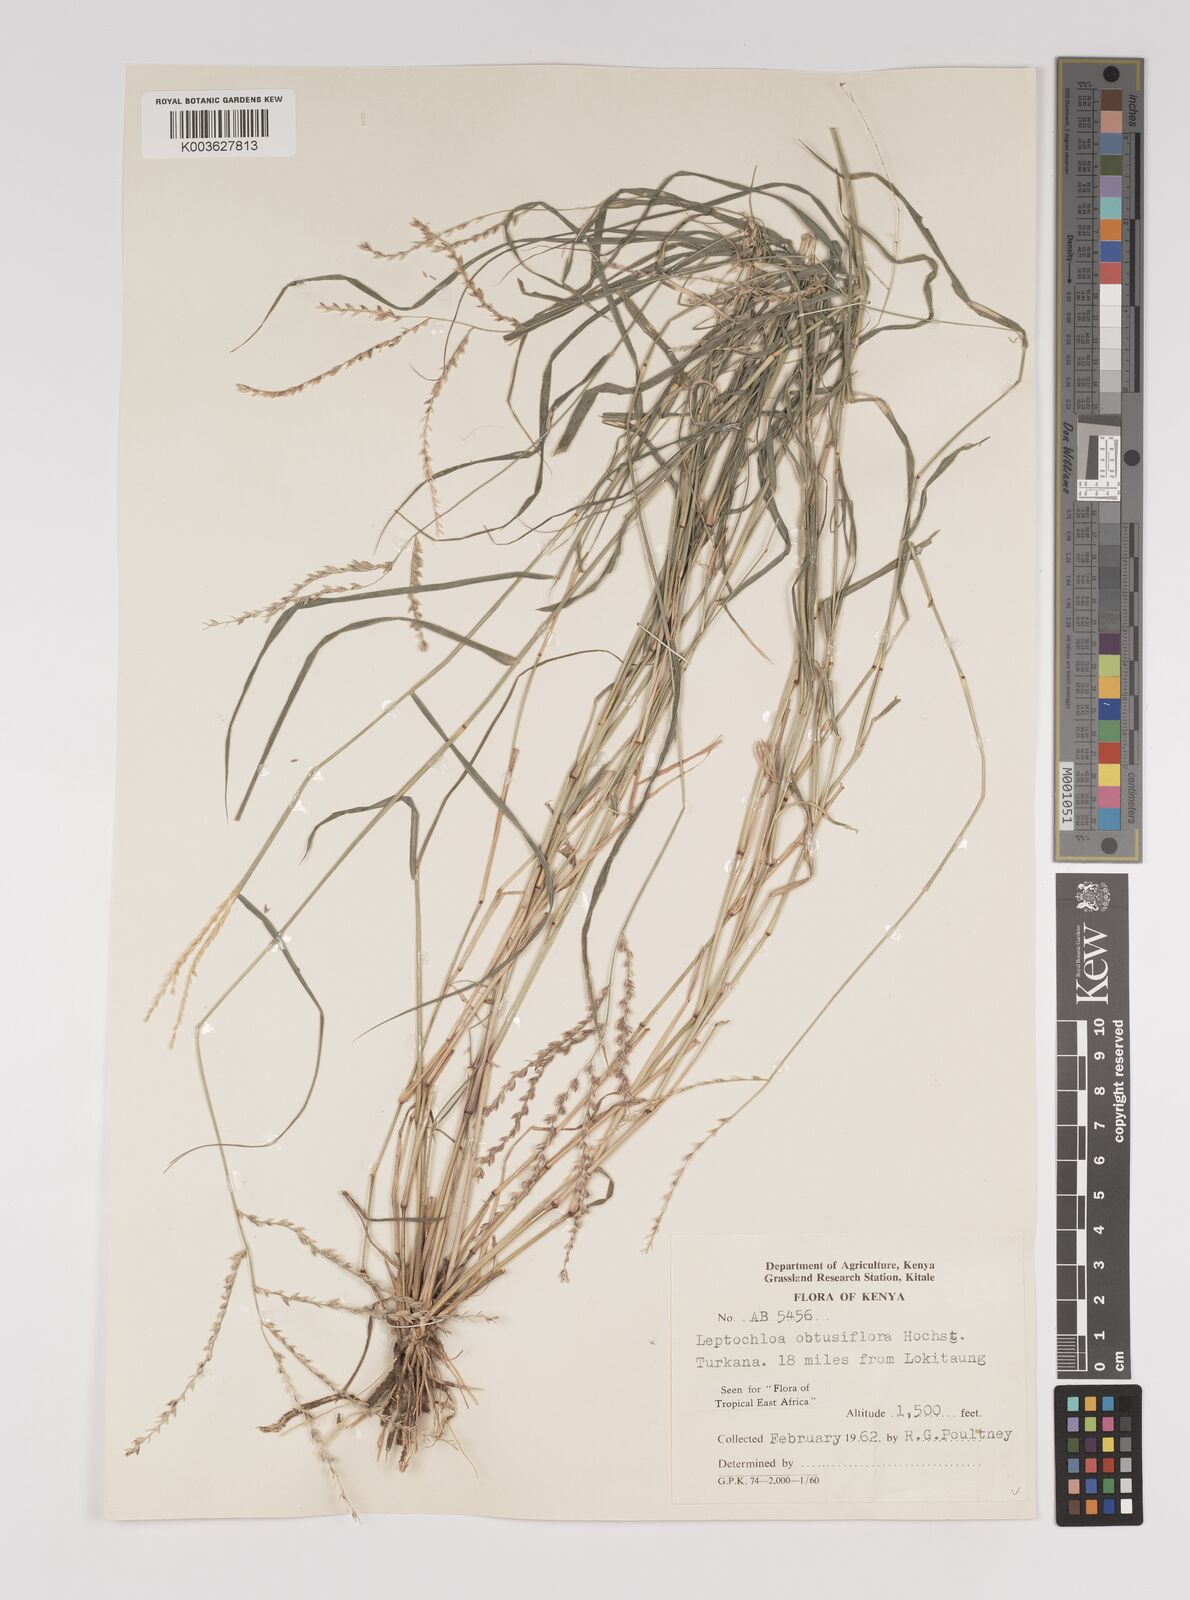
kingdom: Plantae
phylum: Tracheophyta
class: Liliopsida
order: Poales
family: Poaceae
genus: Disakisperma
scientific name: Disakisperma obtusiflorum
